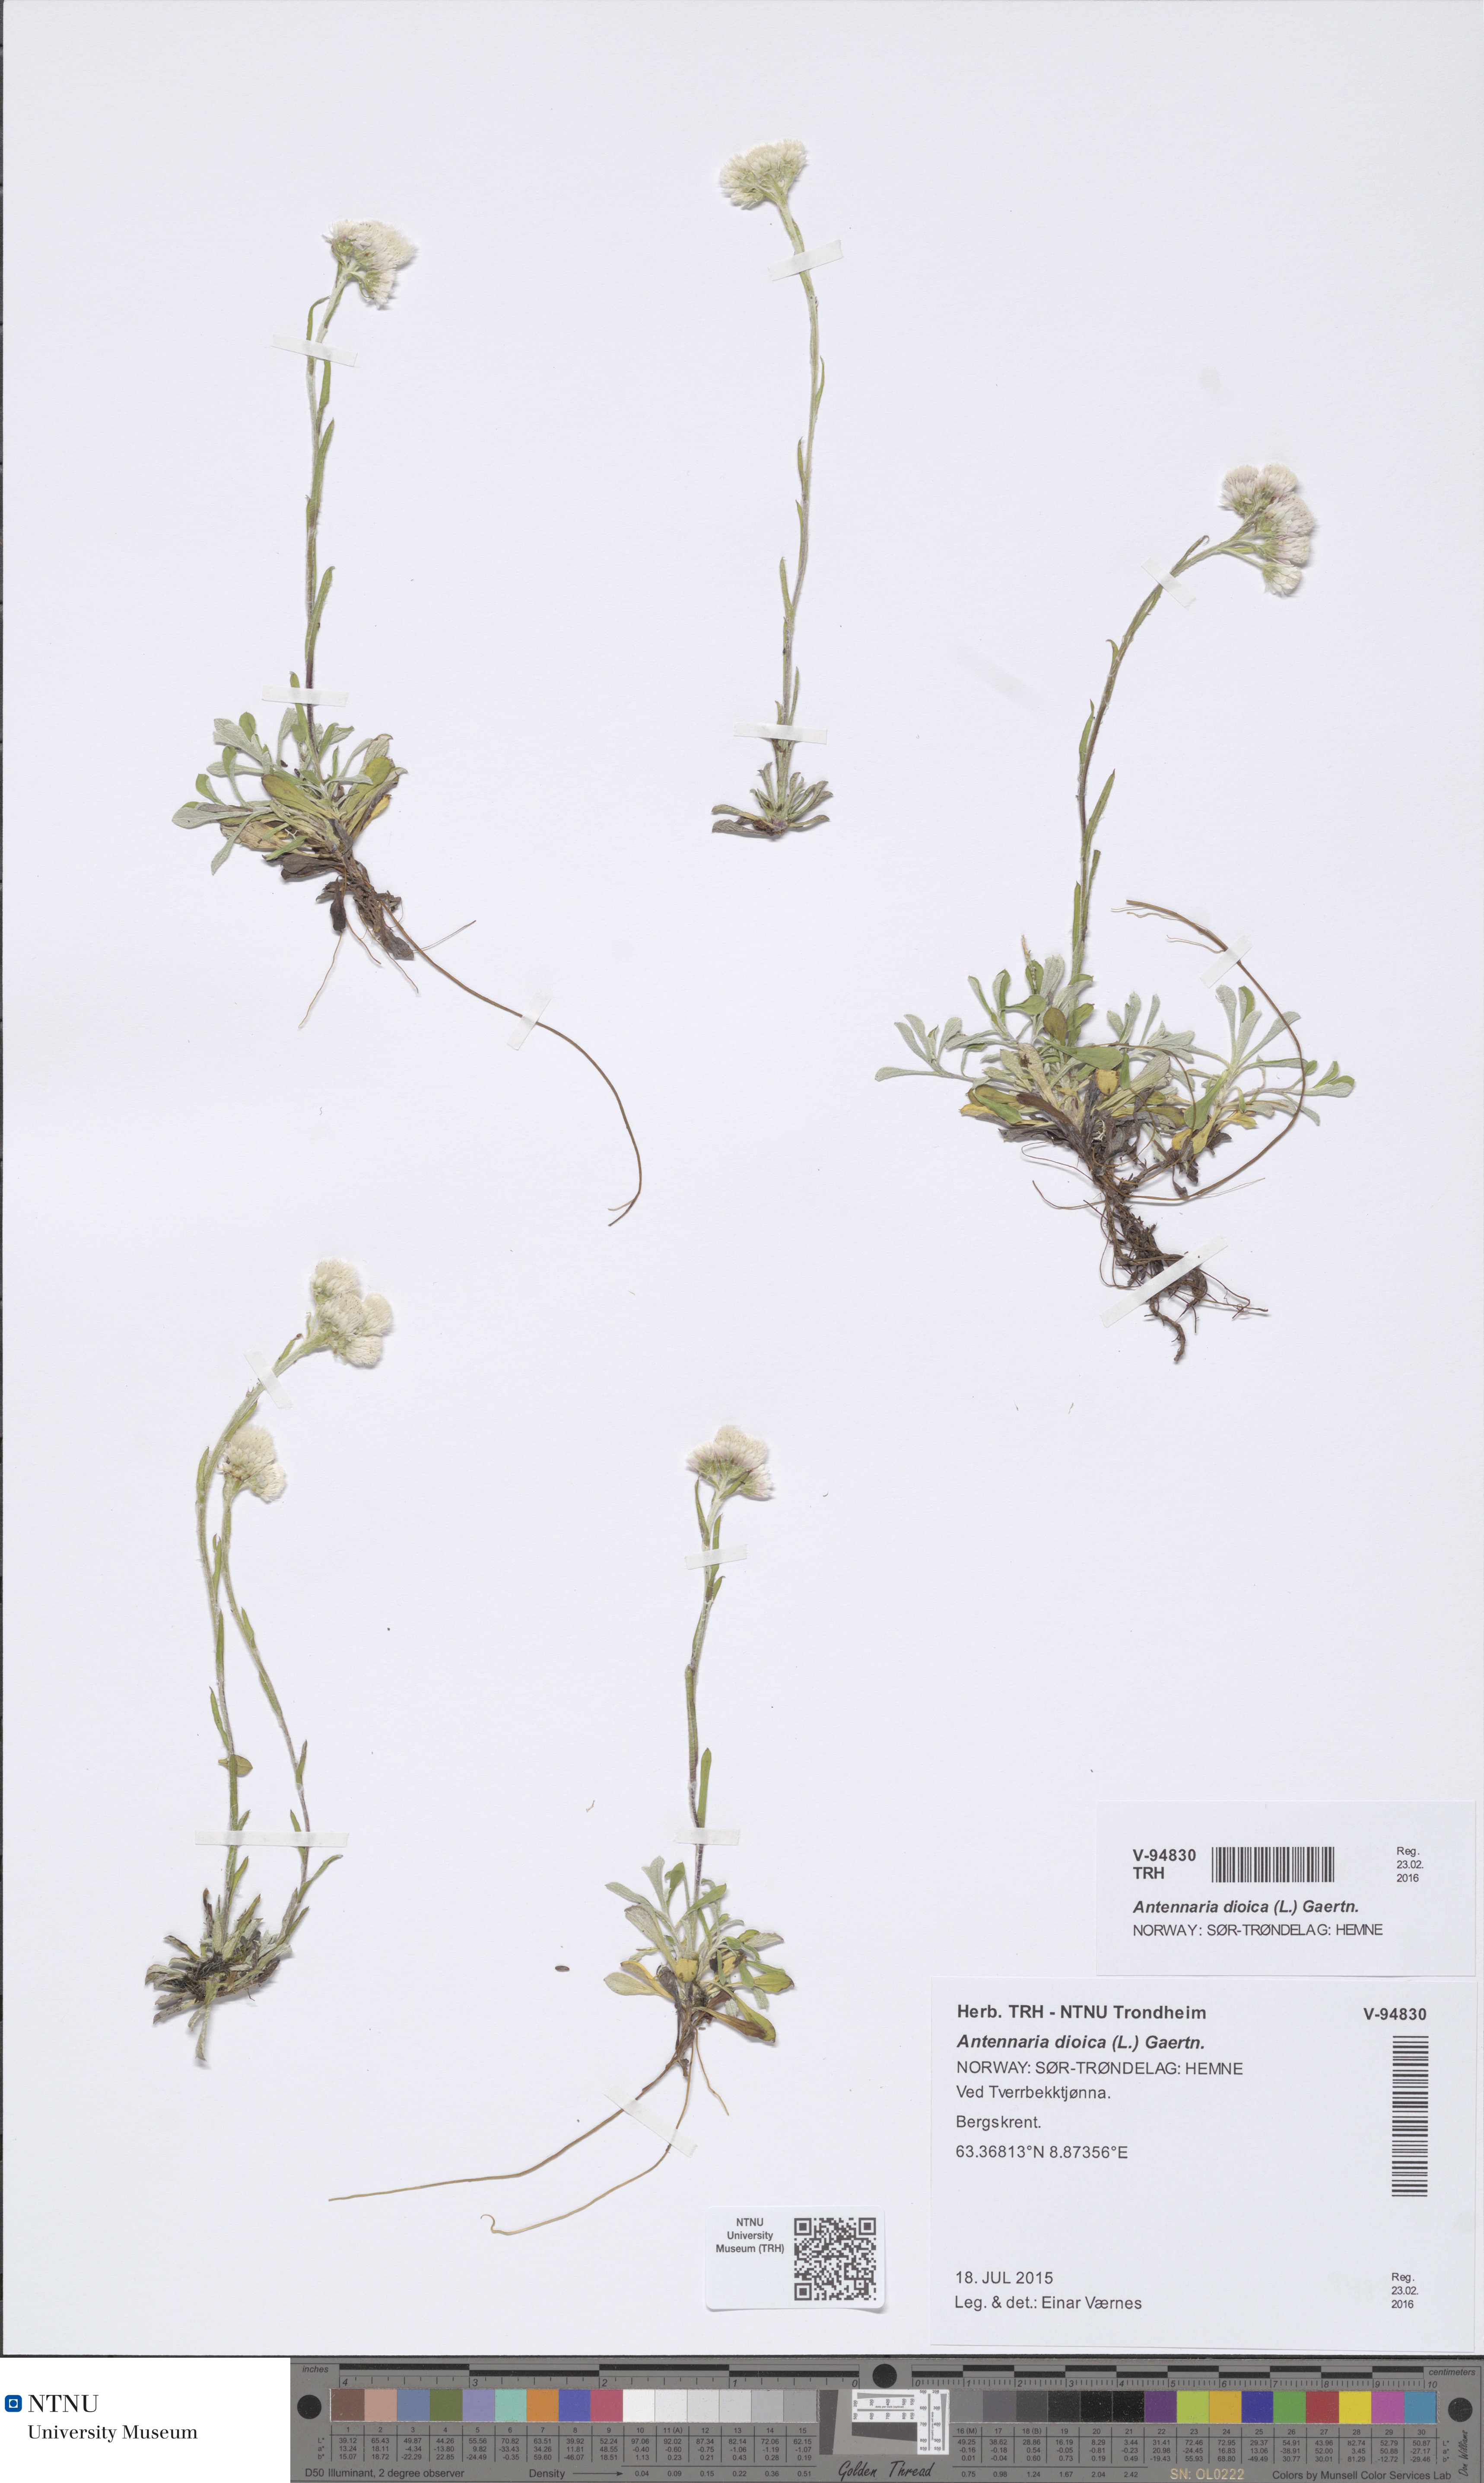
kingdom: Plantae
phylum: Tracheophyta
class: Magnoliopsida
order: Asterales
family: Asteraceae
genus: Antennaria
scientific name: Antennaria dioica
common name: Mountain everlasting
